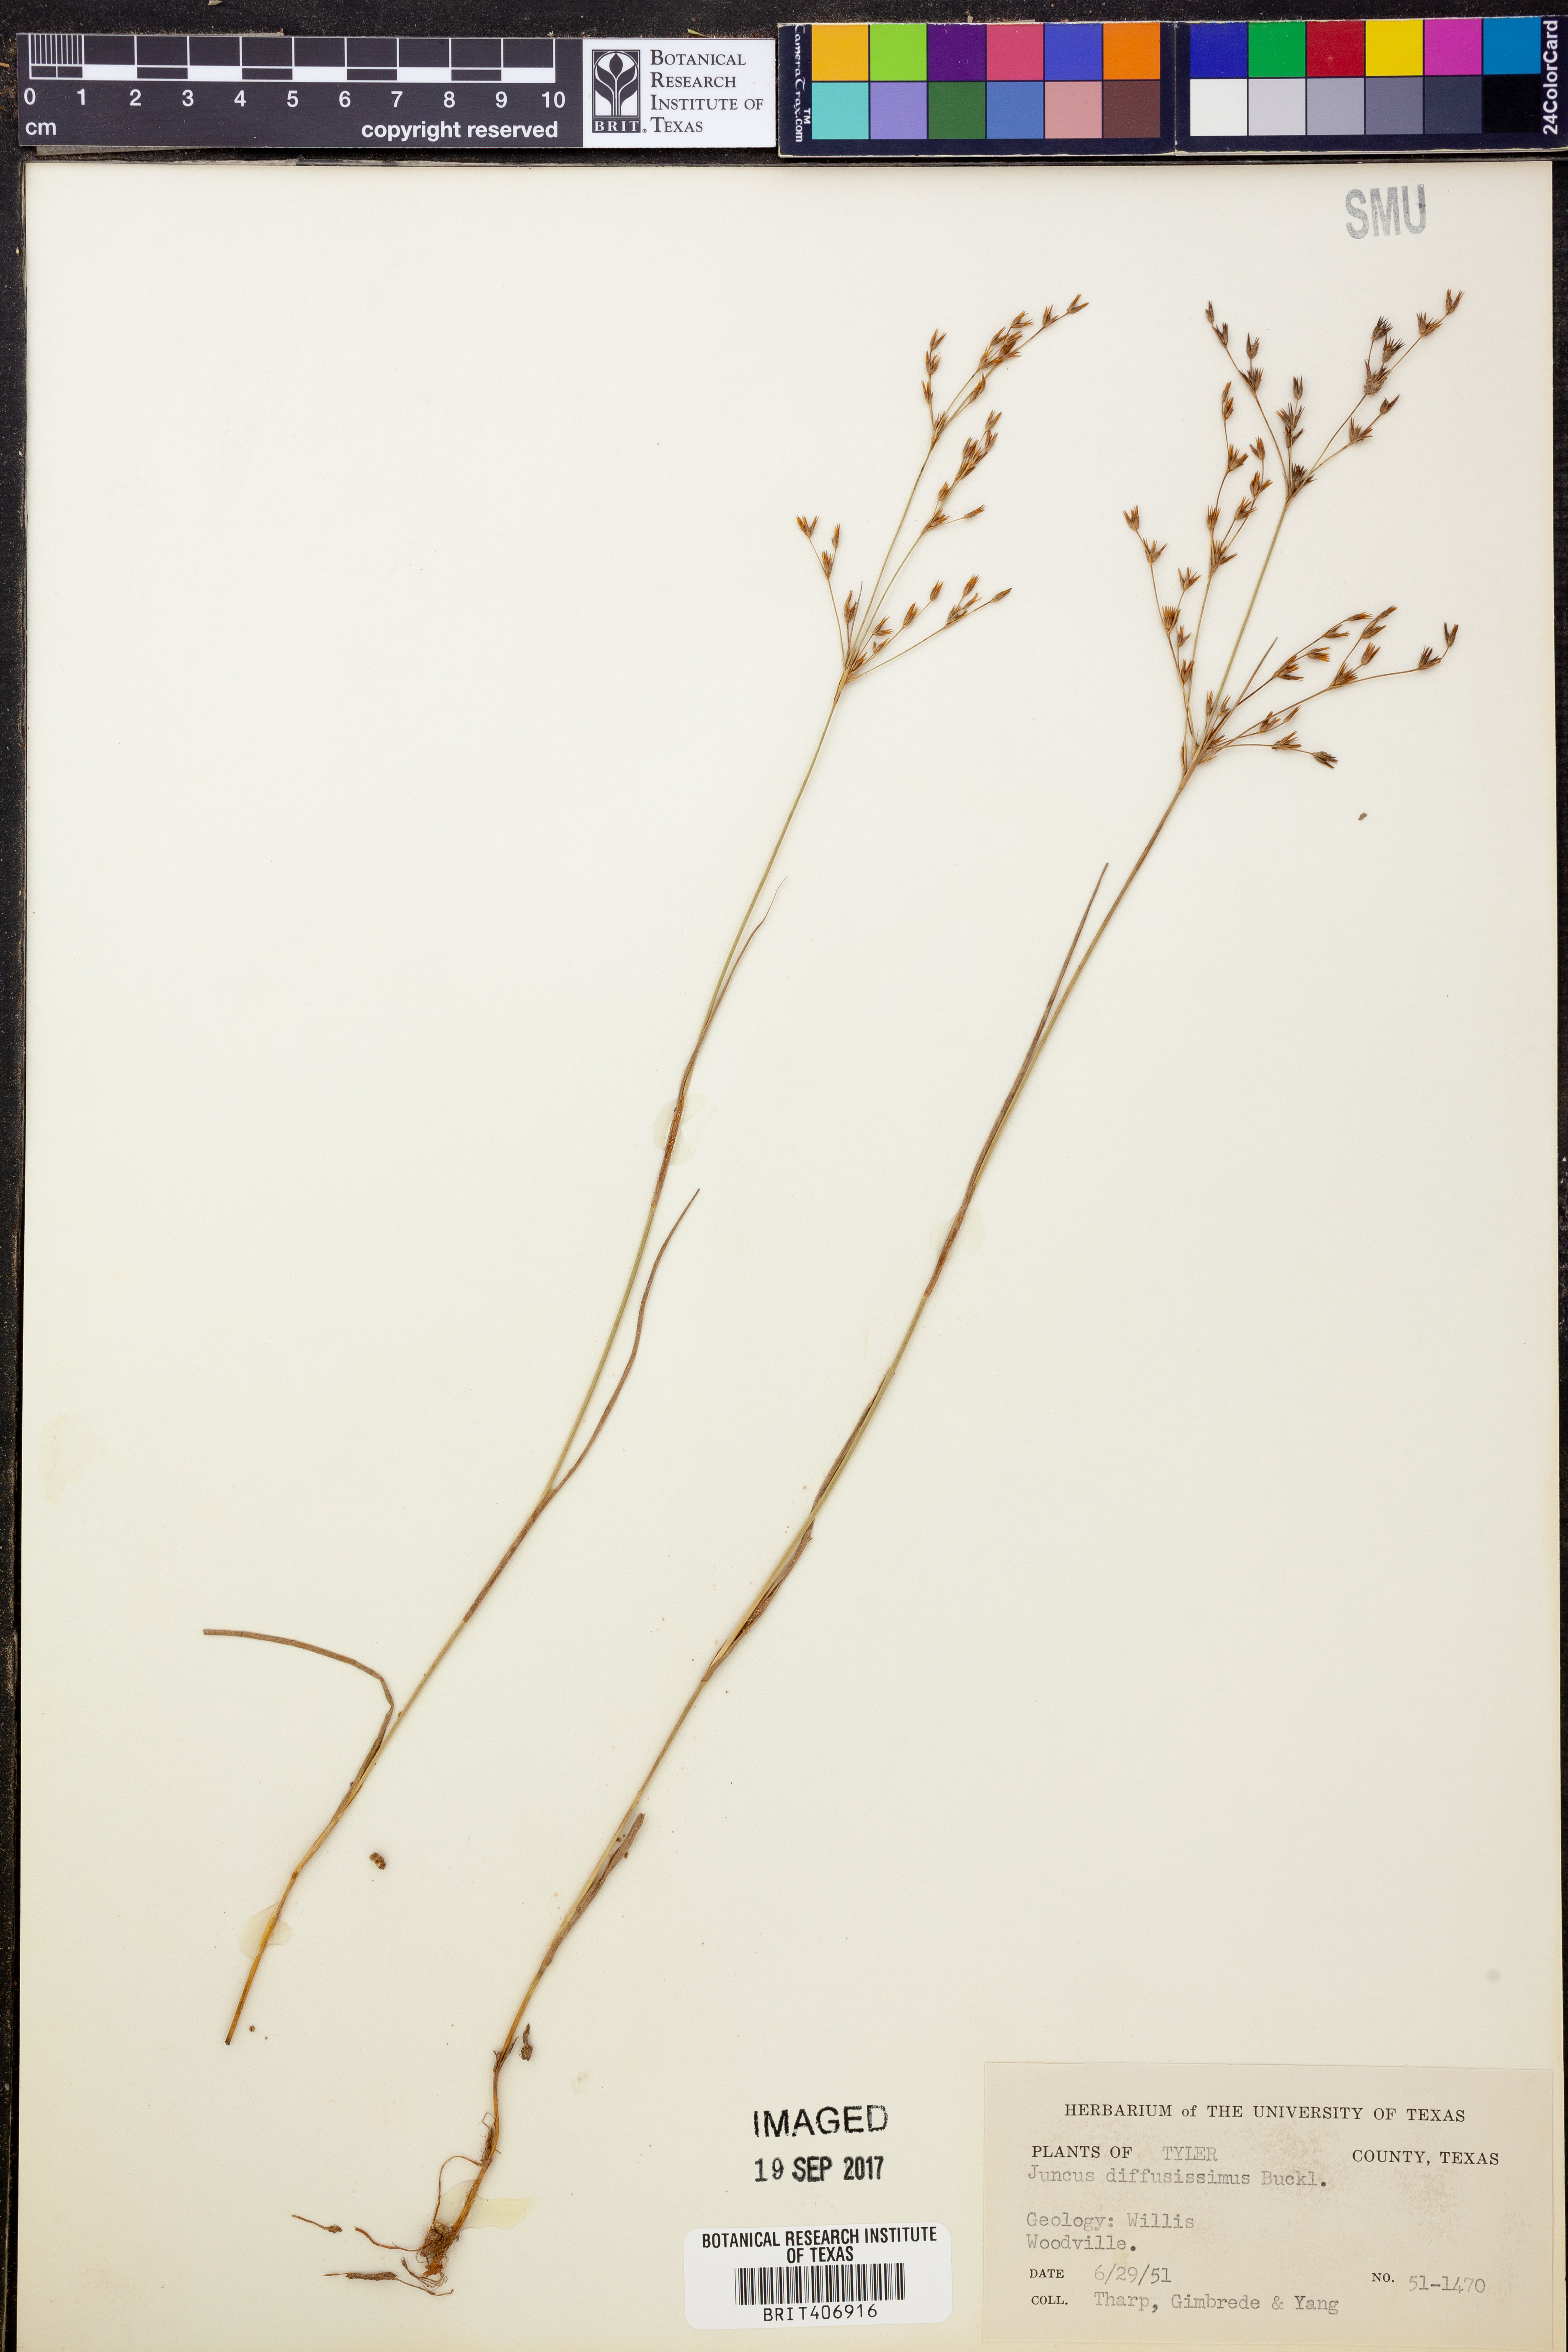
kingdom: Plantae
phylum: Tracheophyta
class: Liliopsida
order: Poales
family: Juncaceae
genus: Juncus
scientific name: Juncus diffusissimus
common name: Slimpod rush
